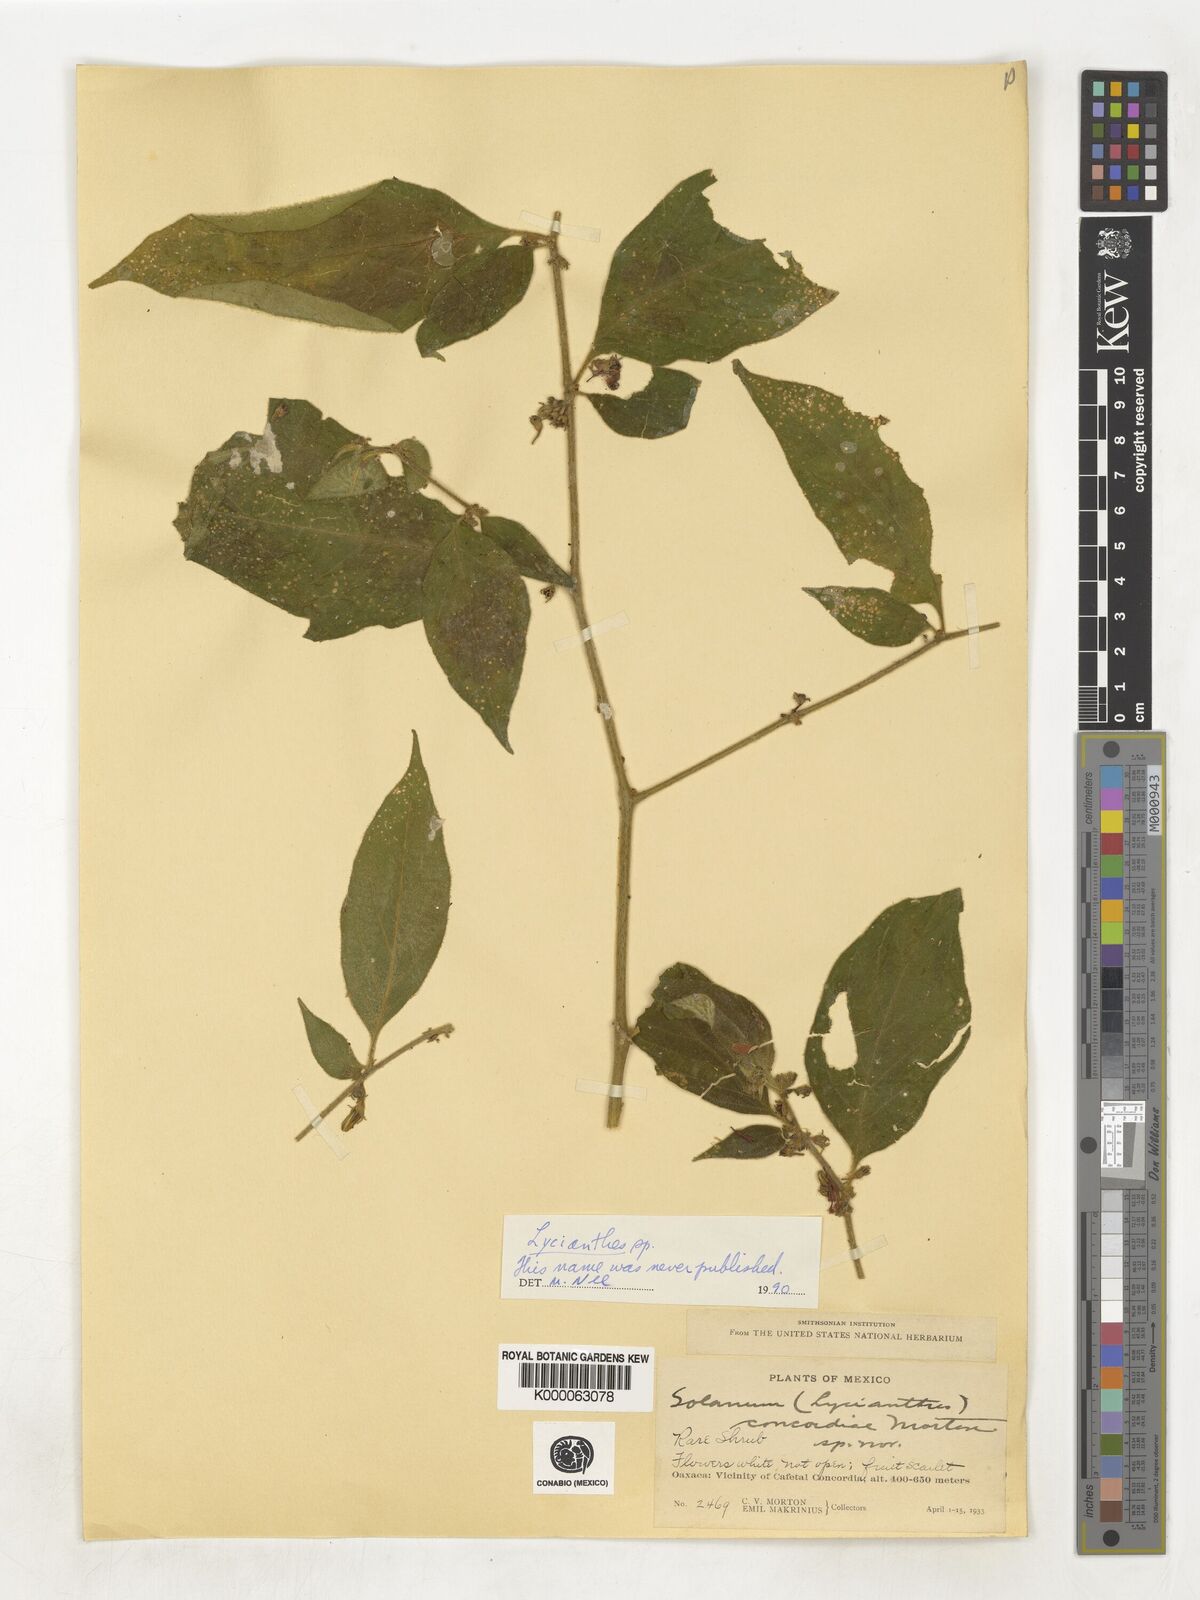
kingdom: Plantae
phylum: Tracheophyta
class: Magnoliopsida
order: Solanales
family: Solanaceae
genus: Lycianthes
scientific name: Lycianthes
